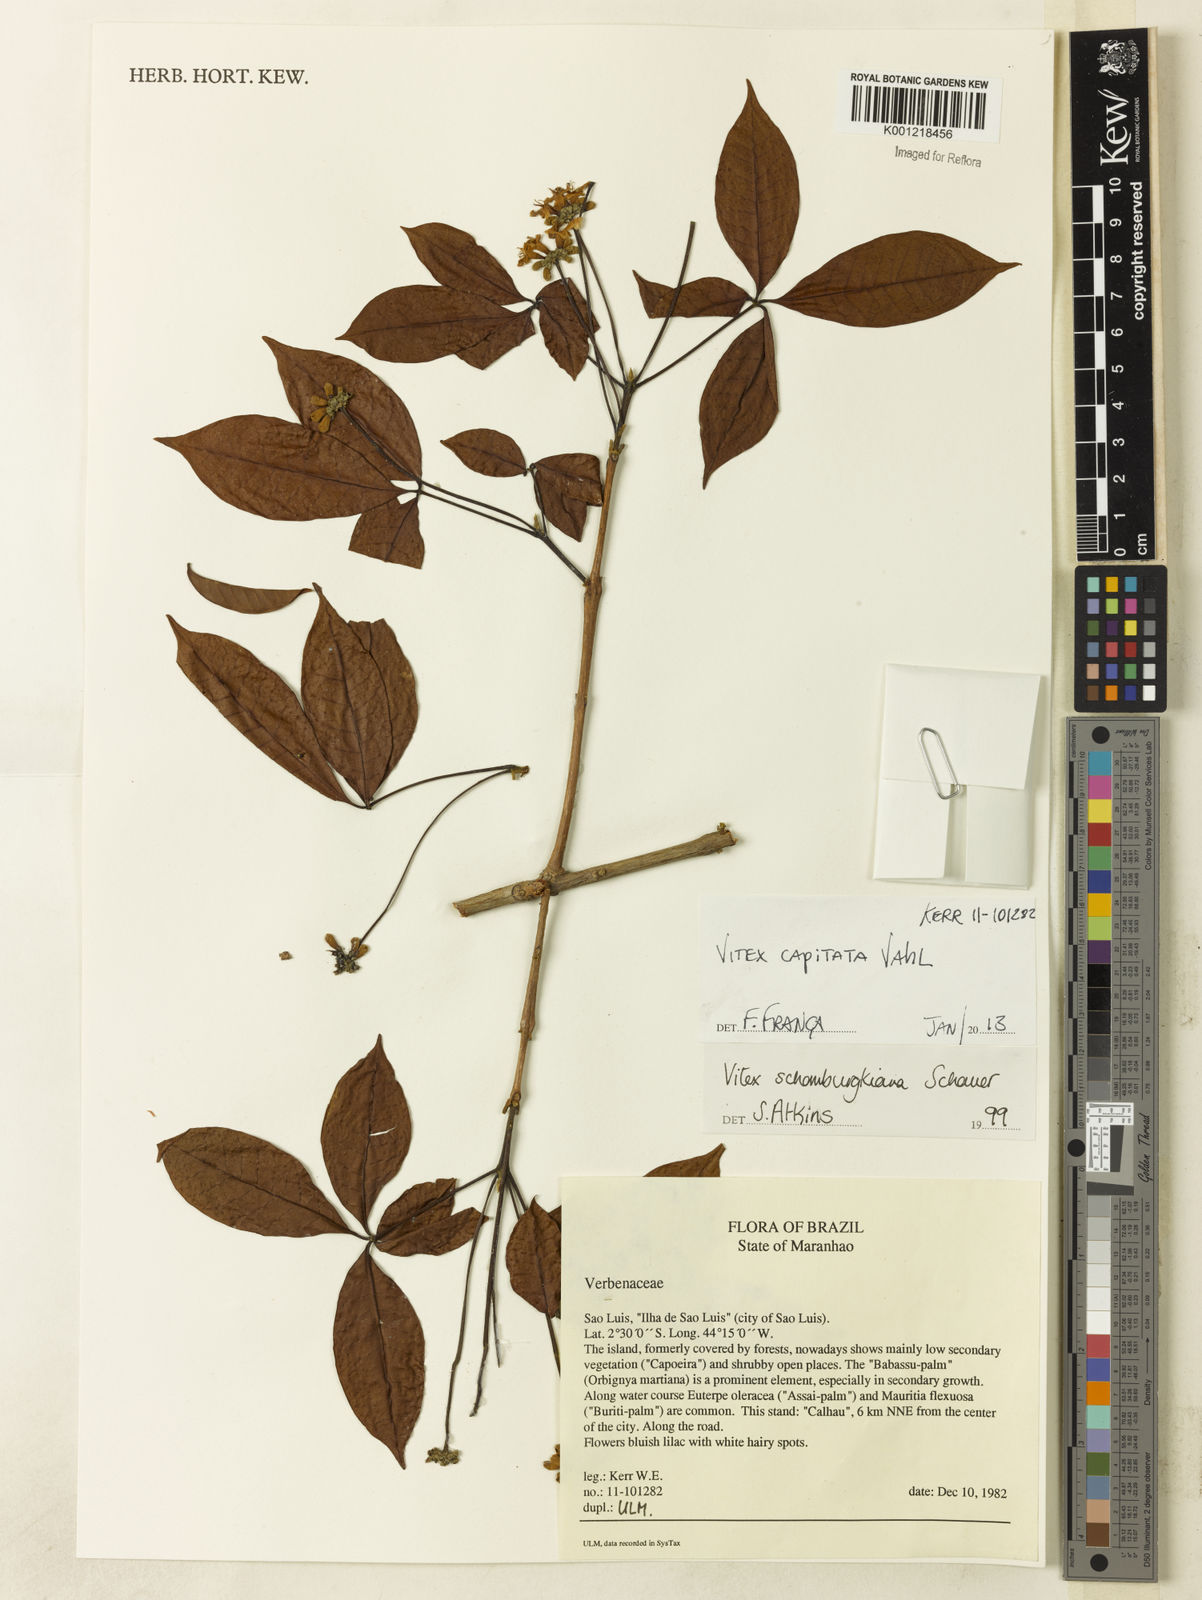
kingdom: Plantae
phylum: Tracheophyta
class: Magnoliopsida
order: Lamiales
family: Lamiaceae
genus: Vitex
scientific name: Vitex capitata
